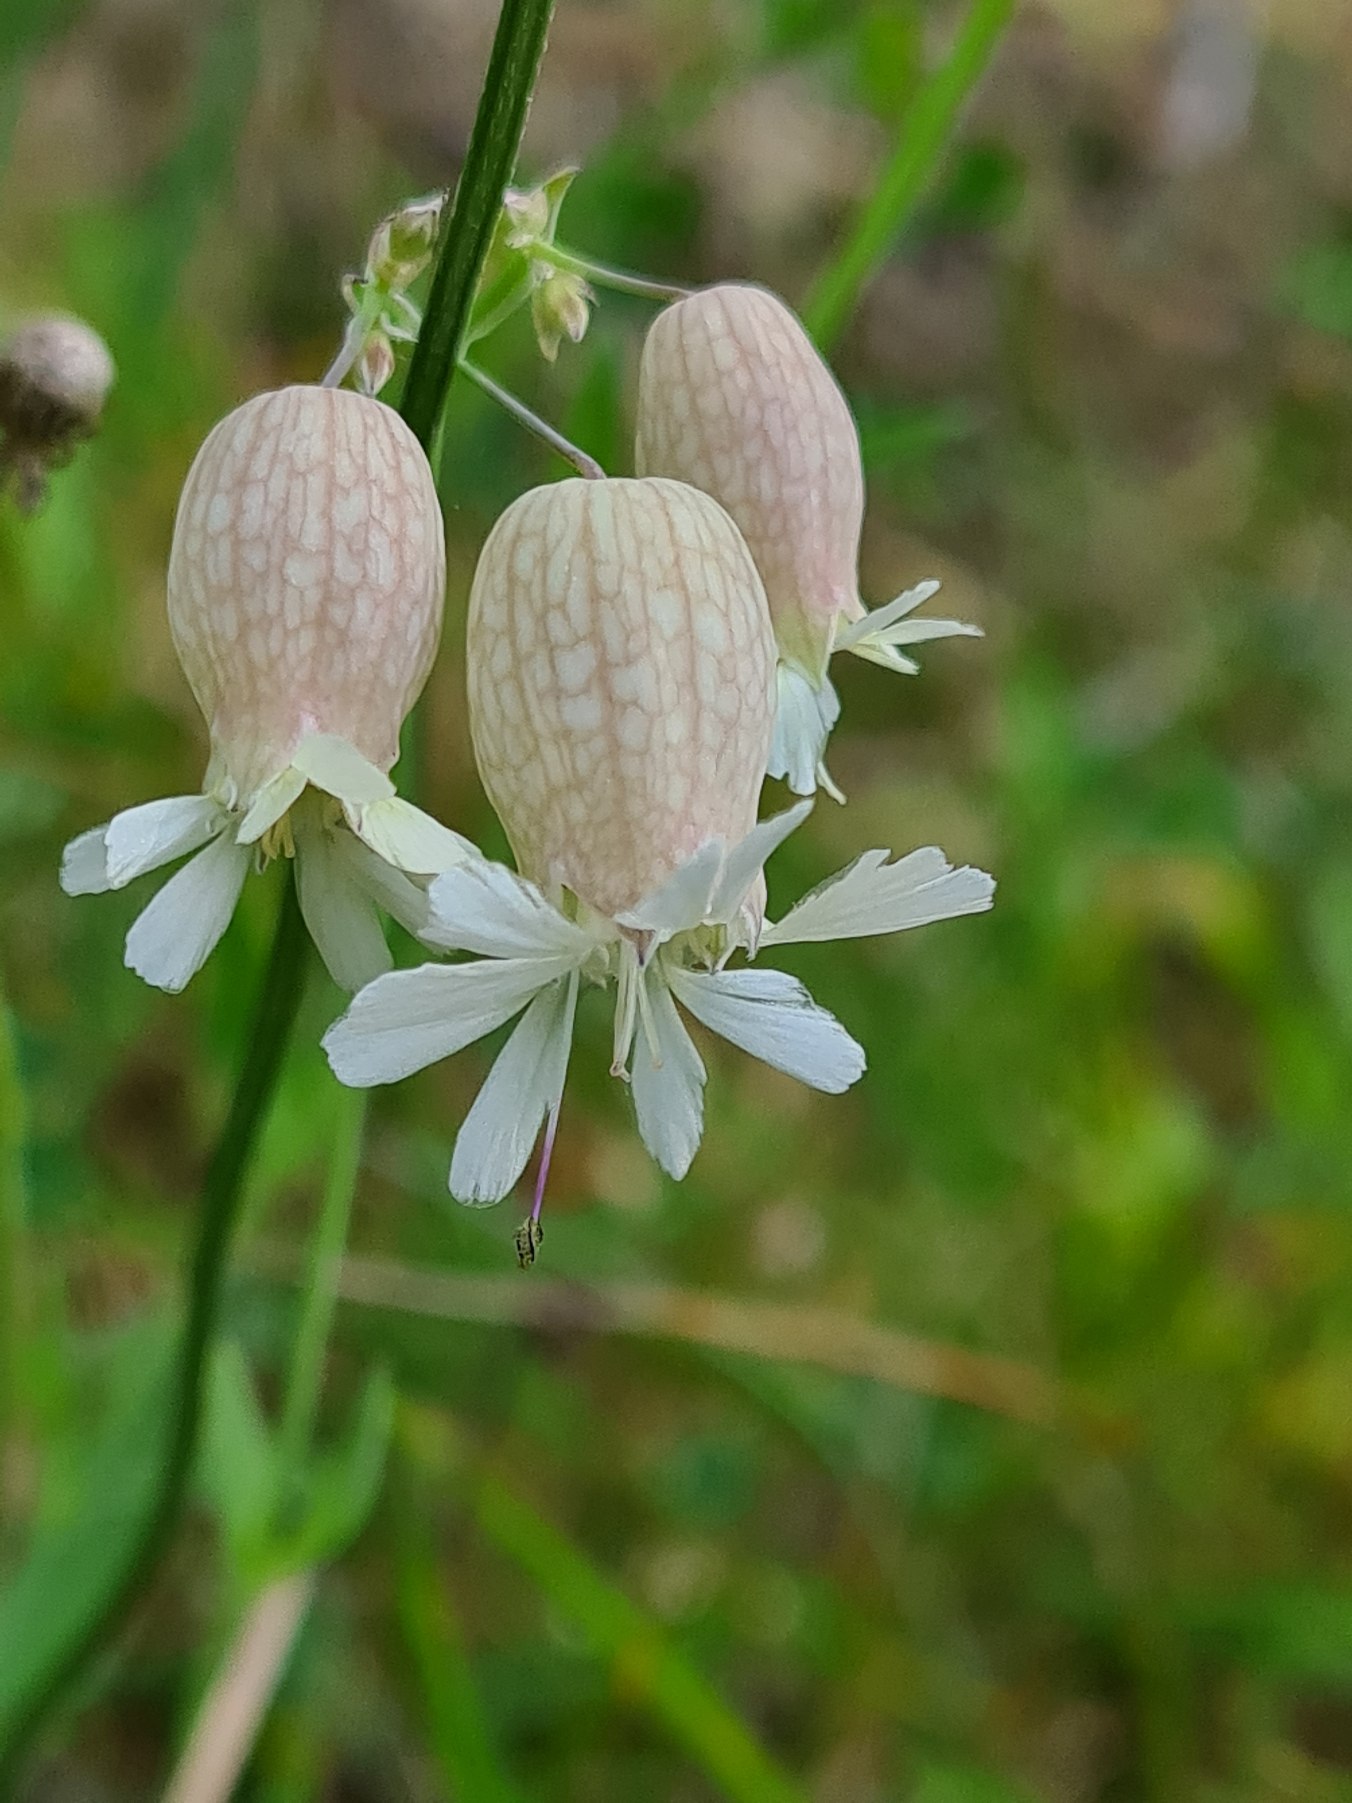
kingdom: Plantae
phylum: Tracheophyta
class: Magnoliopsida
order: Caryophyllales
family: Caryophyllaceae
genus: Silene
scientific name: Silene vulgaris
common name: Blæresmælde
